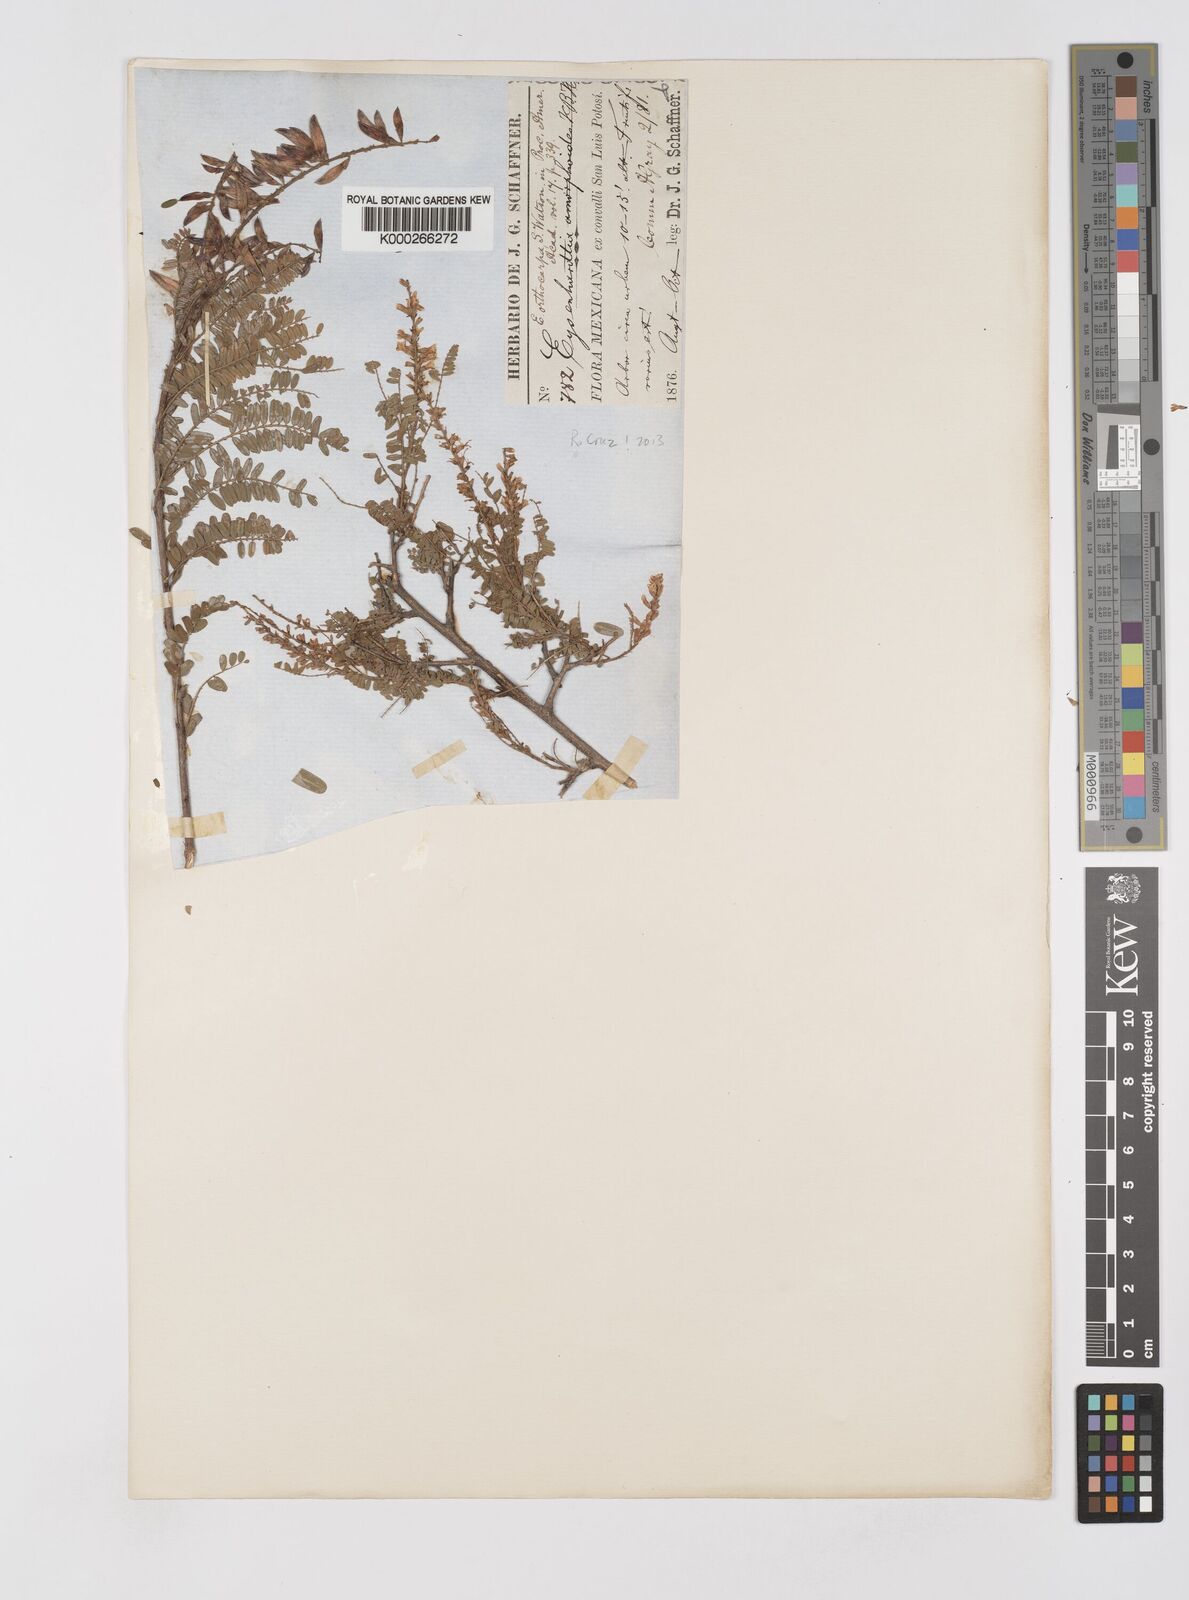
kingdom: Plantae
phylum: Tracheophyta
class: Magnoliopsida
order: Fabales
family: Fabaceae
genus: Eysenhardtia
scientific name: Eysenhardtia polystachya
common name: Kidneywood
